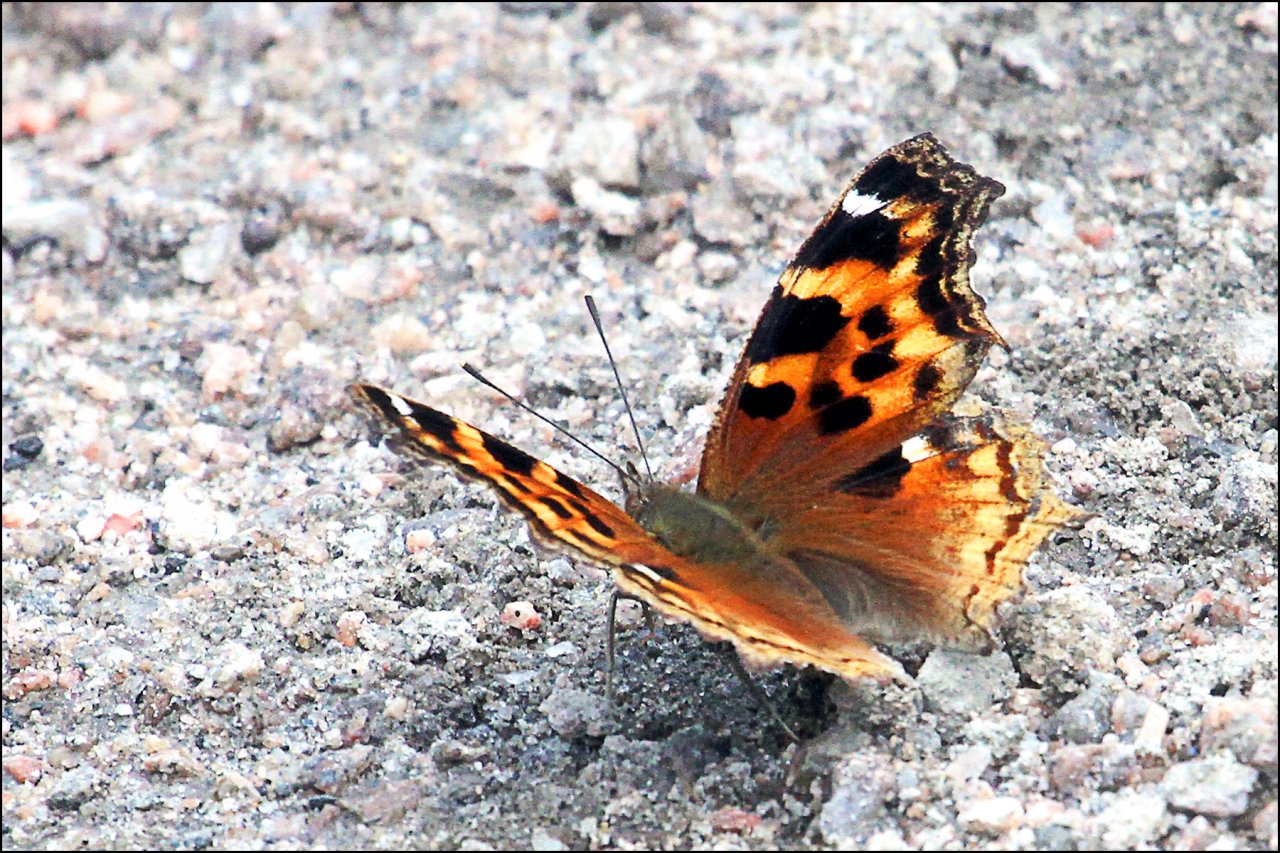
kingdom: Animalia
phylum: Arthropoda
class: Insecta
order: Lepidoptera
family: Nymphalidae
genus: Polygonia
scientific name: Polygonia vaualbum
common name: Compton Tortoiseshell
